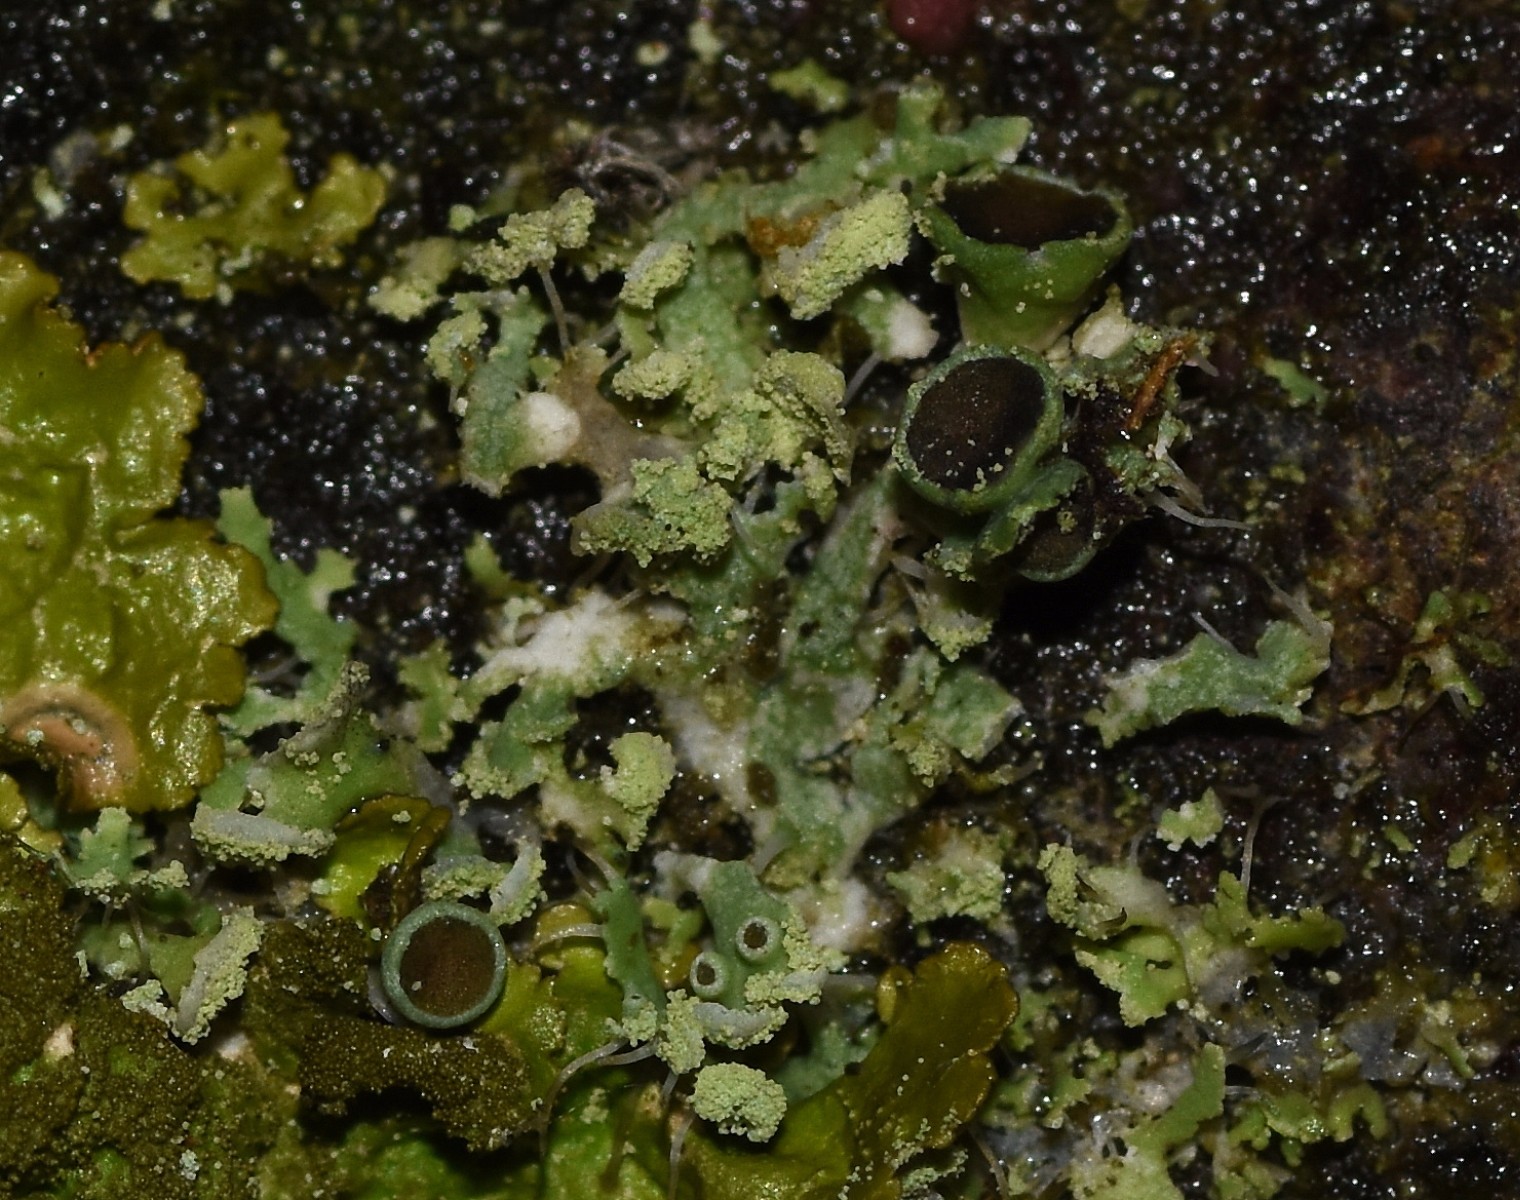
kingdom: Fungi
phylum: Ascomycota
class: Lecanoromycetes
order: Caliciales
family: Physciaceae
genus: Physcia
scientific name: Physcia tenella
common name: spæd rosetlav
